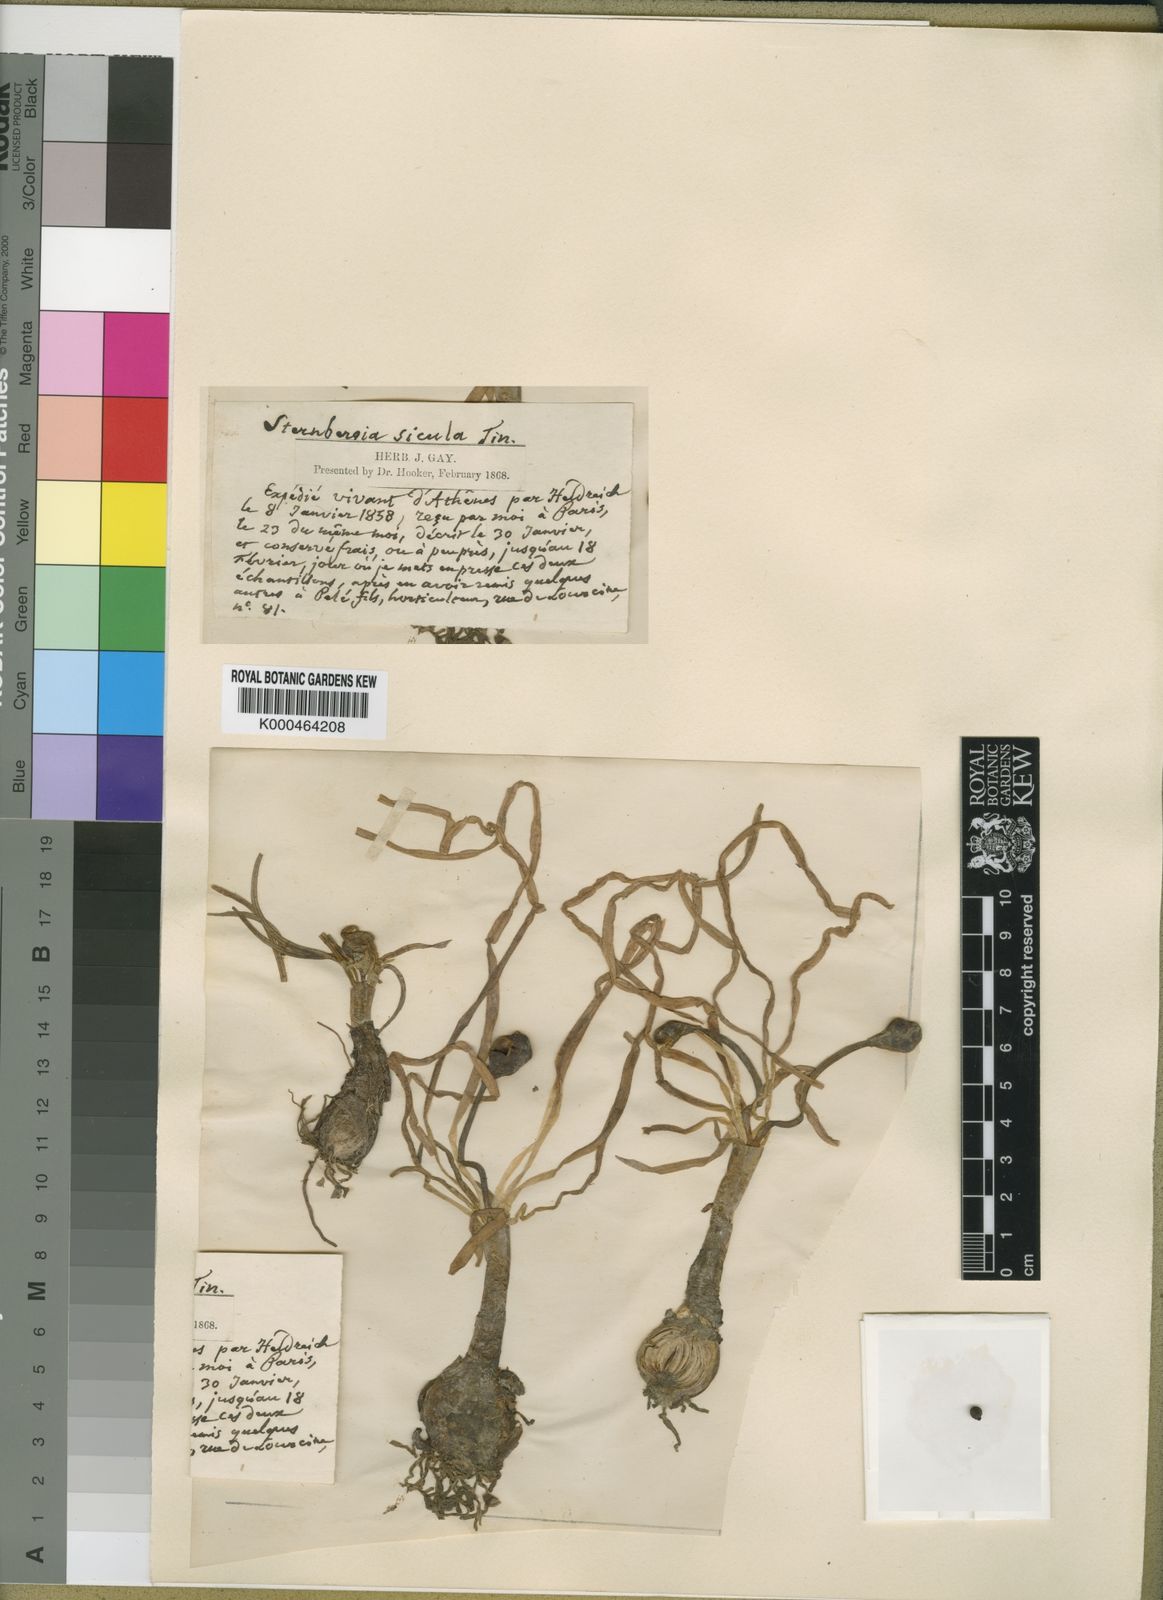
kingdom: Plantae
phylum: Tracheophyta
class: Liliopsida
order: Asparagales
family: Amaryllidaceae
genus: Sternbergia
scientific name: Sternbergia
